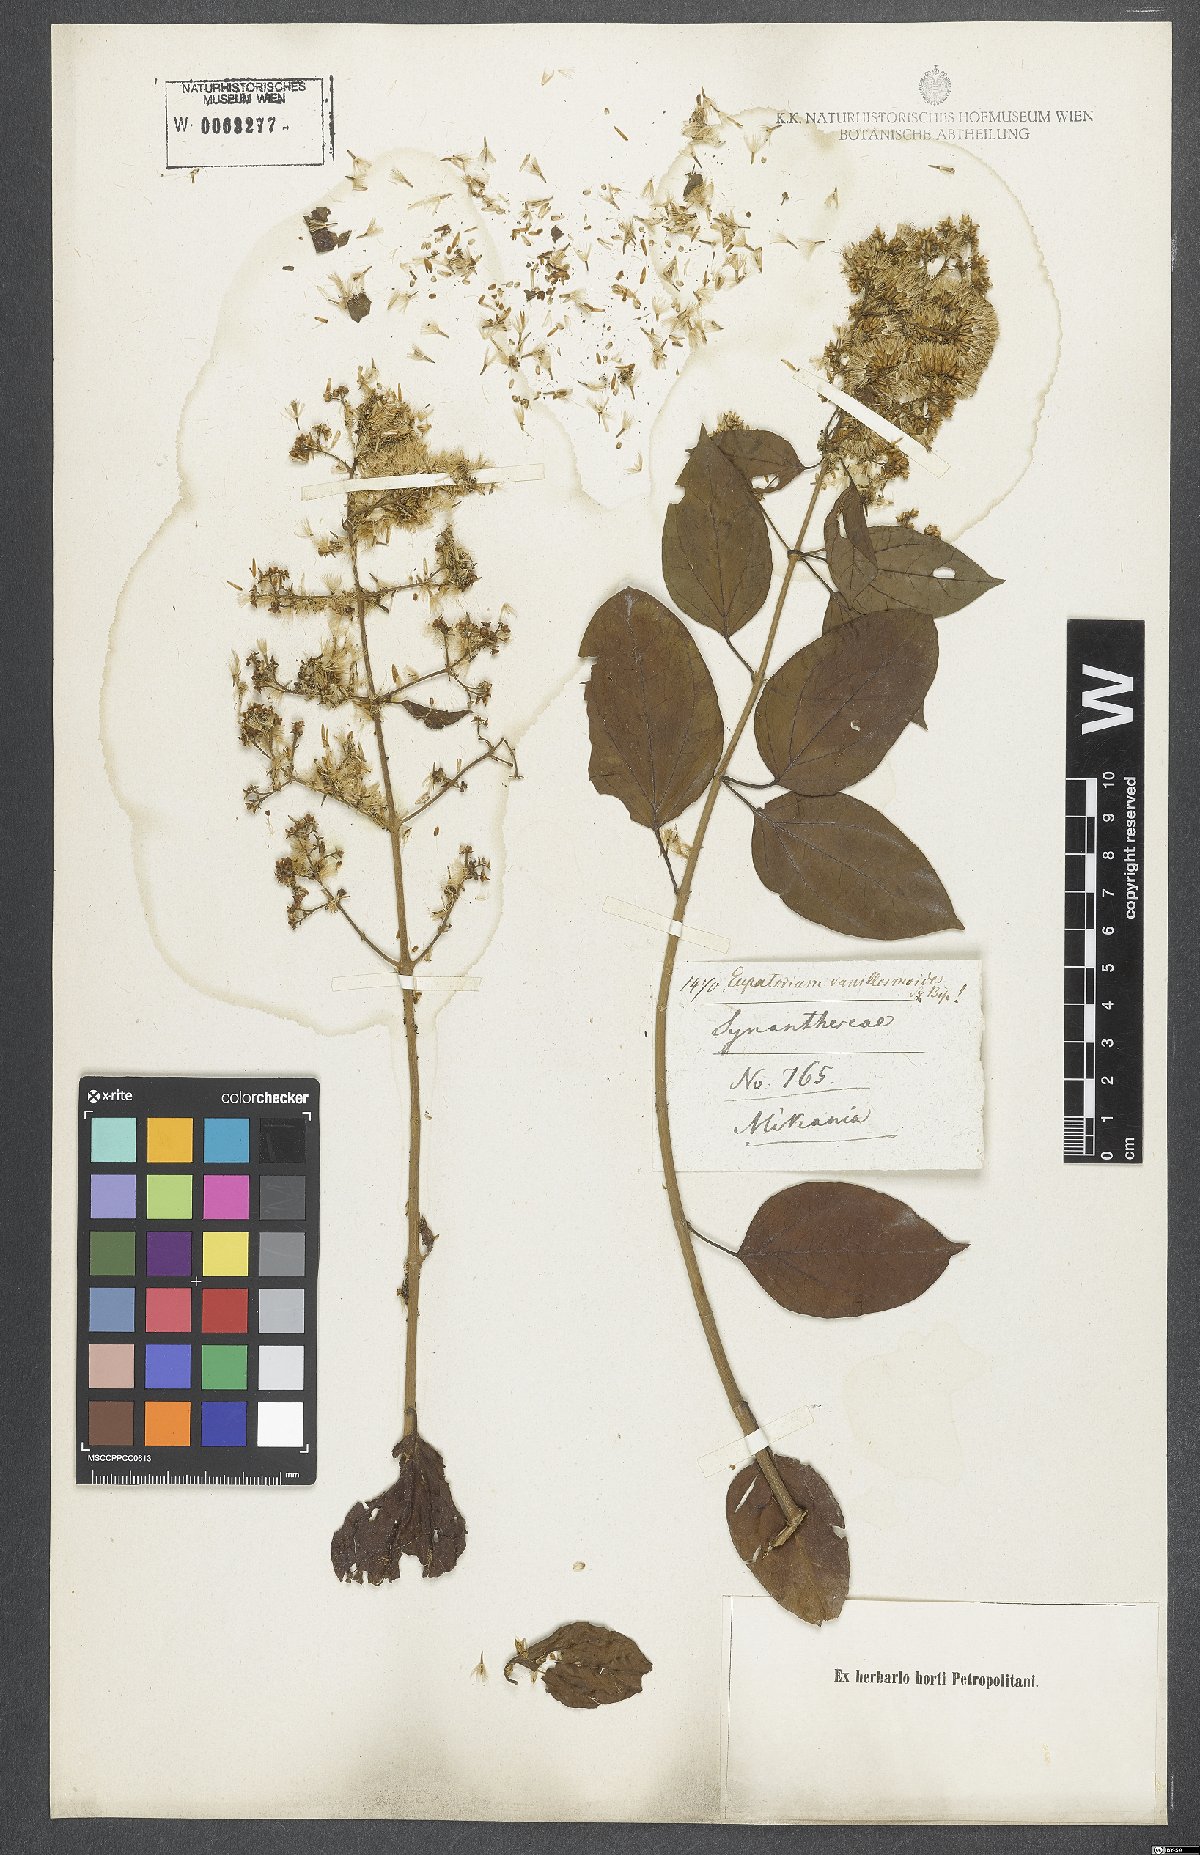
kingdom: Plantae
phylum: Tracheophyta
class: Magnoliopsida
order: Asterales
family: Asteraceae
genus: Steyermarkina
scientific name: Steyermarkina pyrifolia
